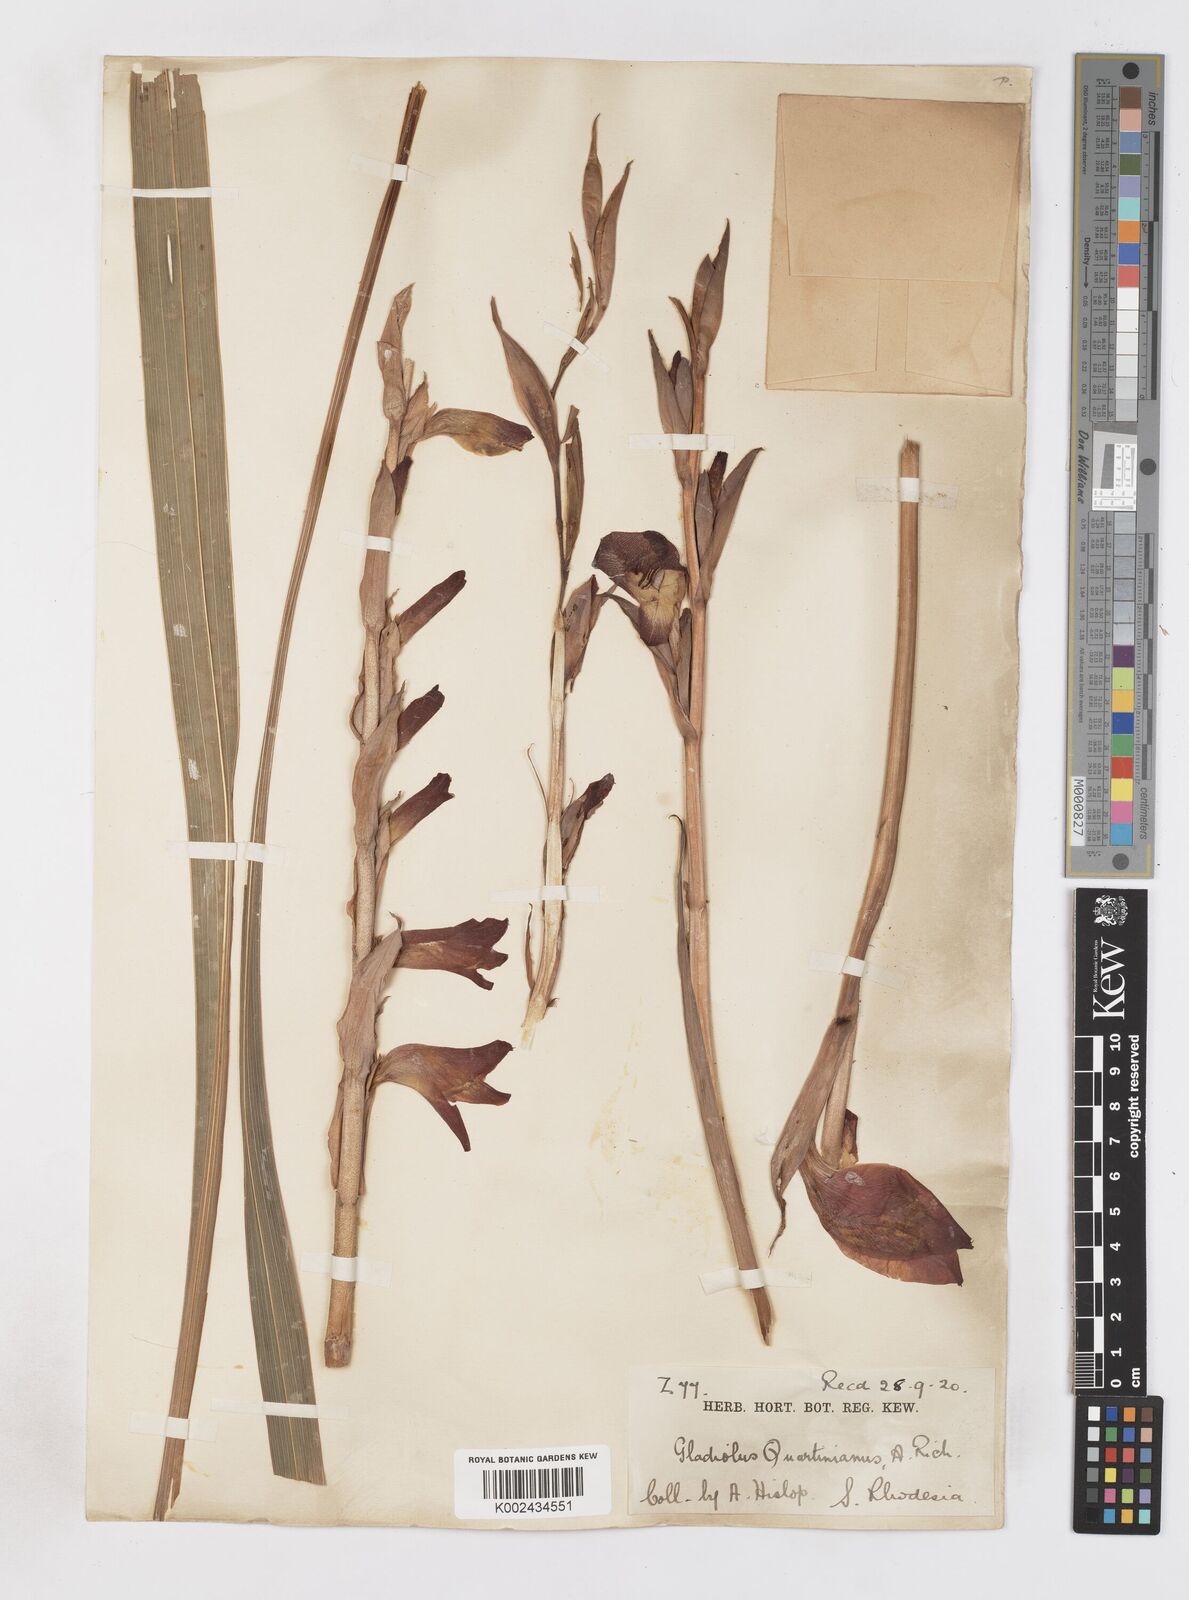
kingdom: Plantae
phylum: Tracheophyta
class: Liliopsida
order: Asparagales
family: Iridaceae
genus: Gladiolus
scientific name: Gladiolus dalenii
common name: Cornflag
